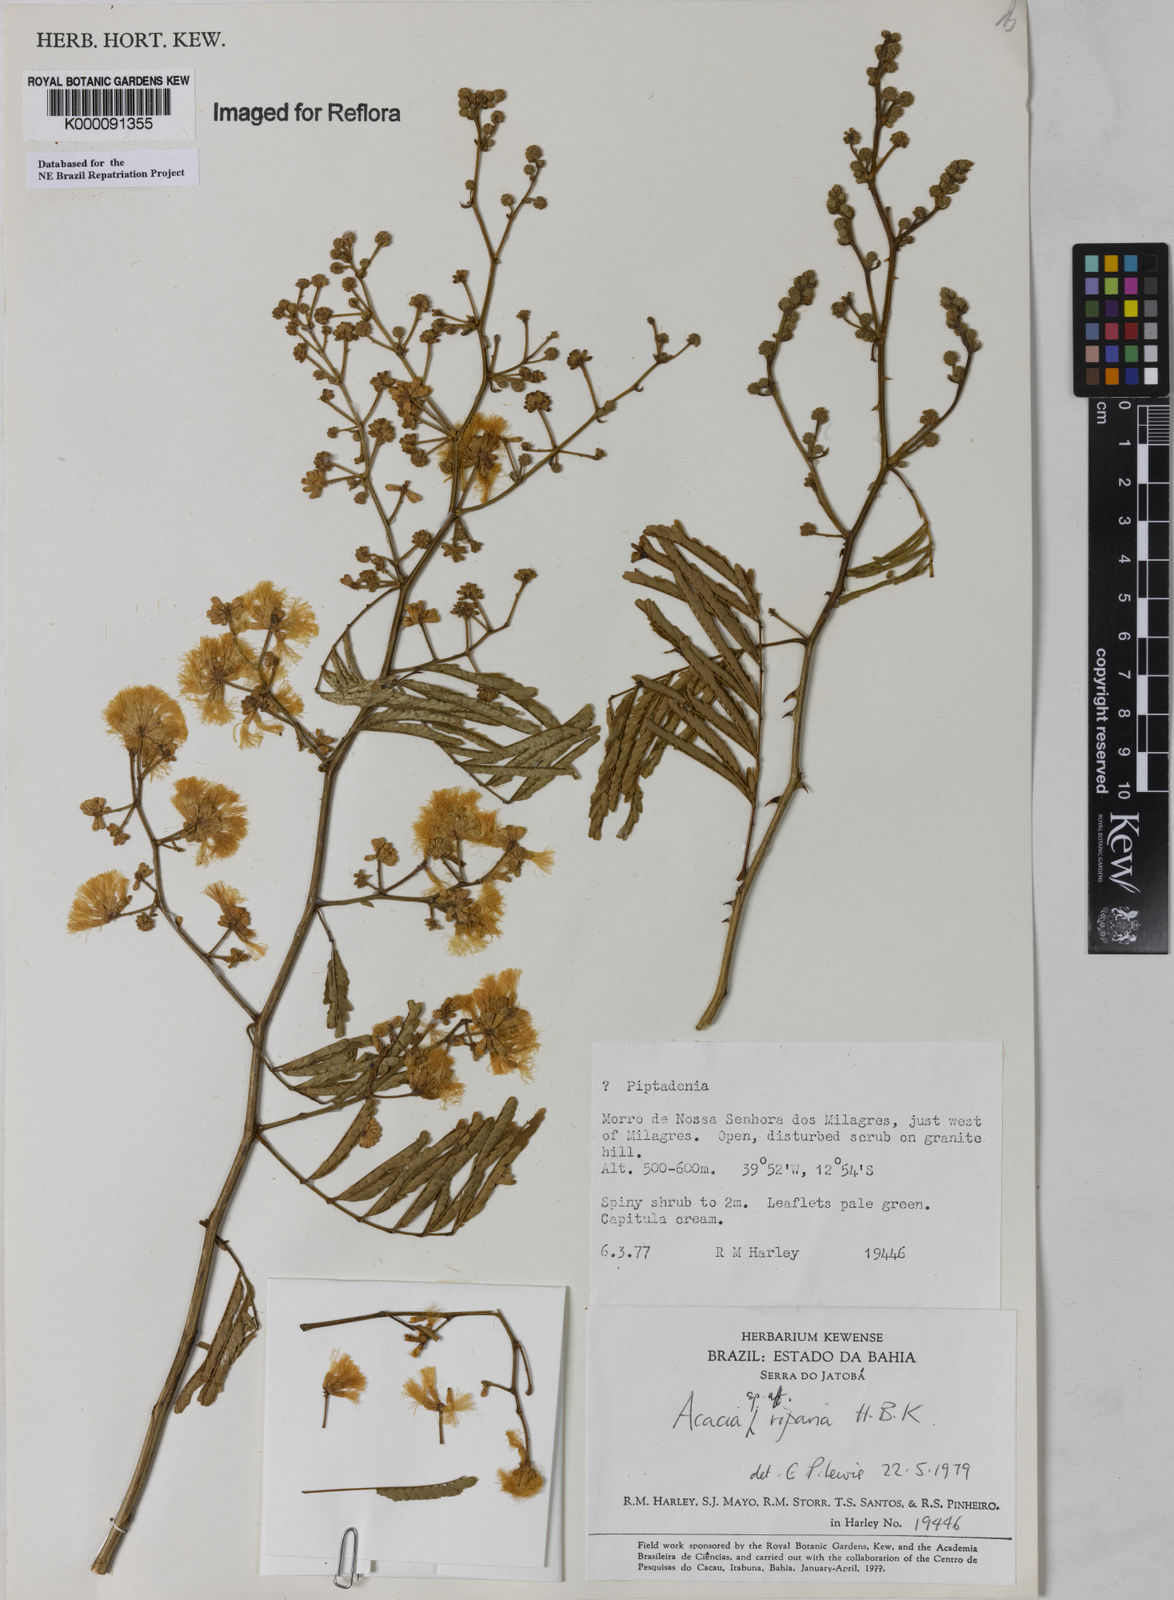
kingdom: Plantae
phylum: Tracheophyta
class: Magnoliopsida
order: Fabales
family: Fabaceae
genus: Senegalia
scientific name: Senegalia riparia
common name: Catch-and-keep
